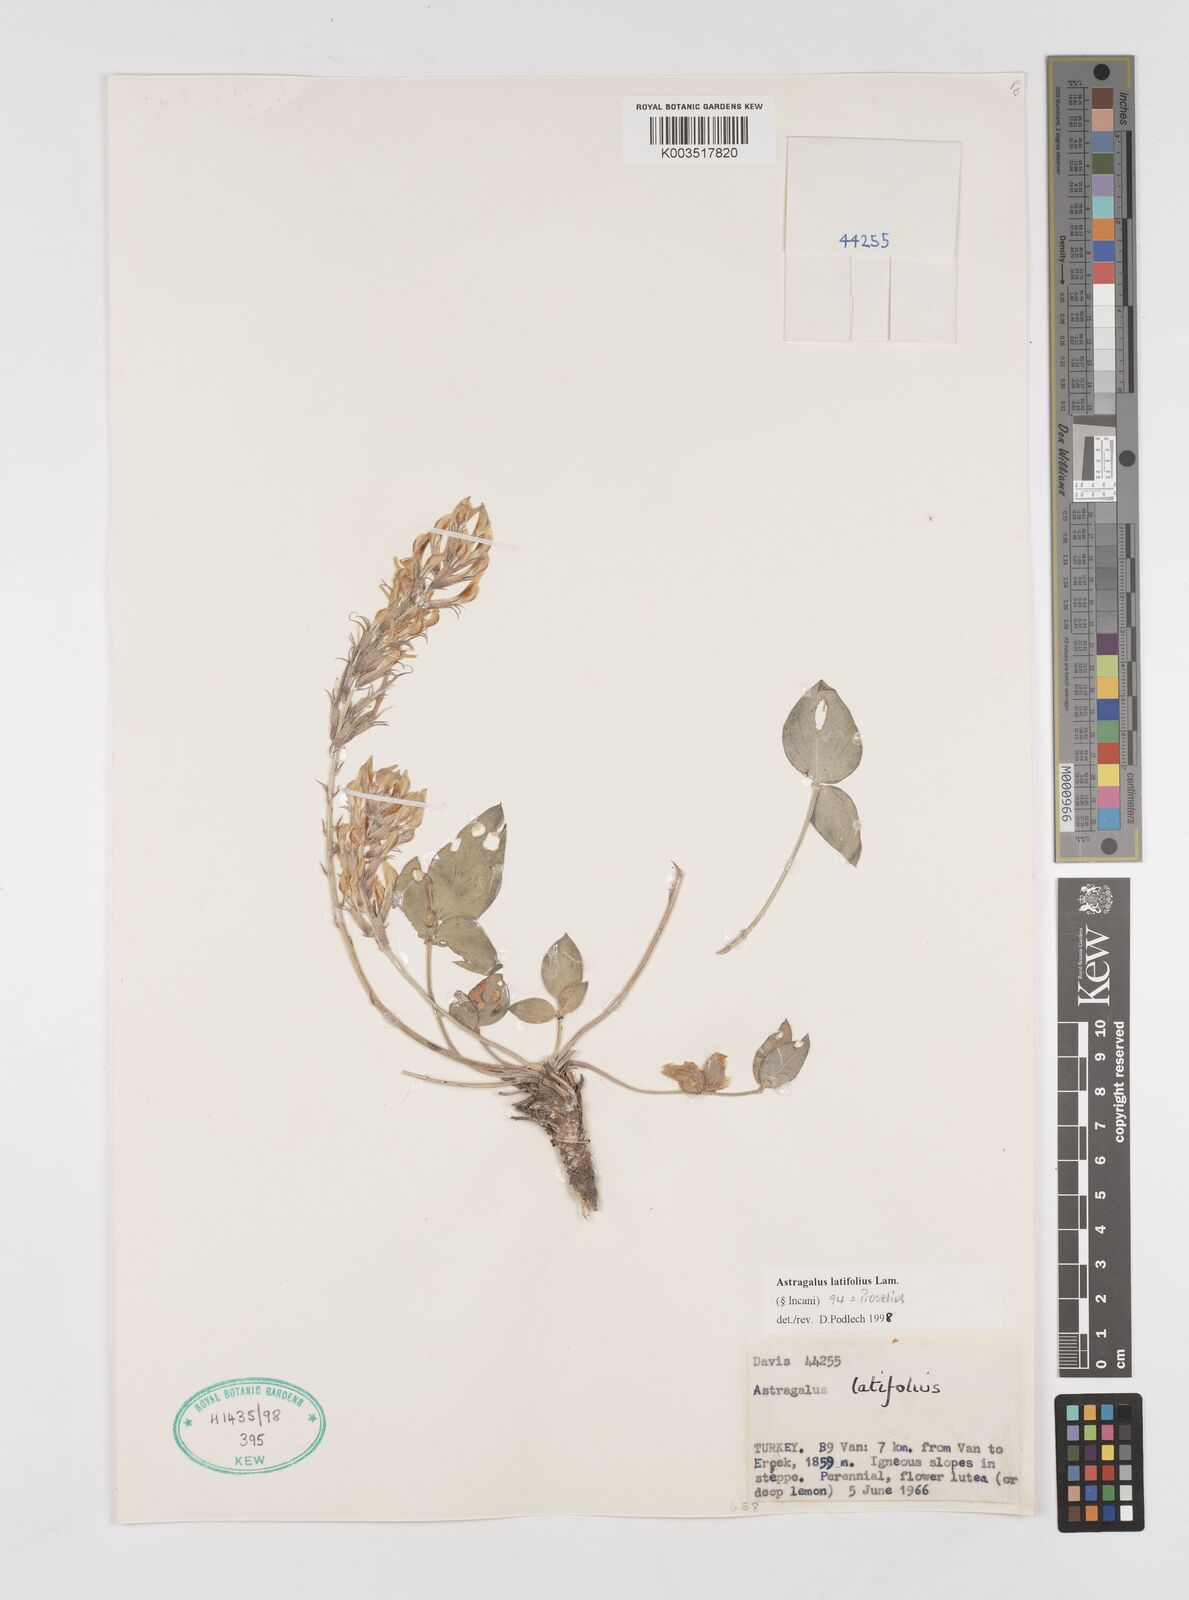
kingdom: Plantae
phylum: Tracheophyta
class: Magnoliopsida
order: Fabales
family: Fabaceae
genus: Astragalus
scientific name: Astragalus latifolius
